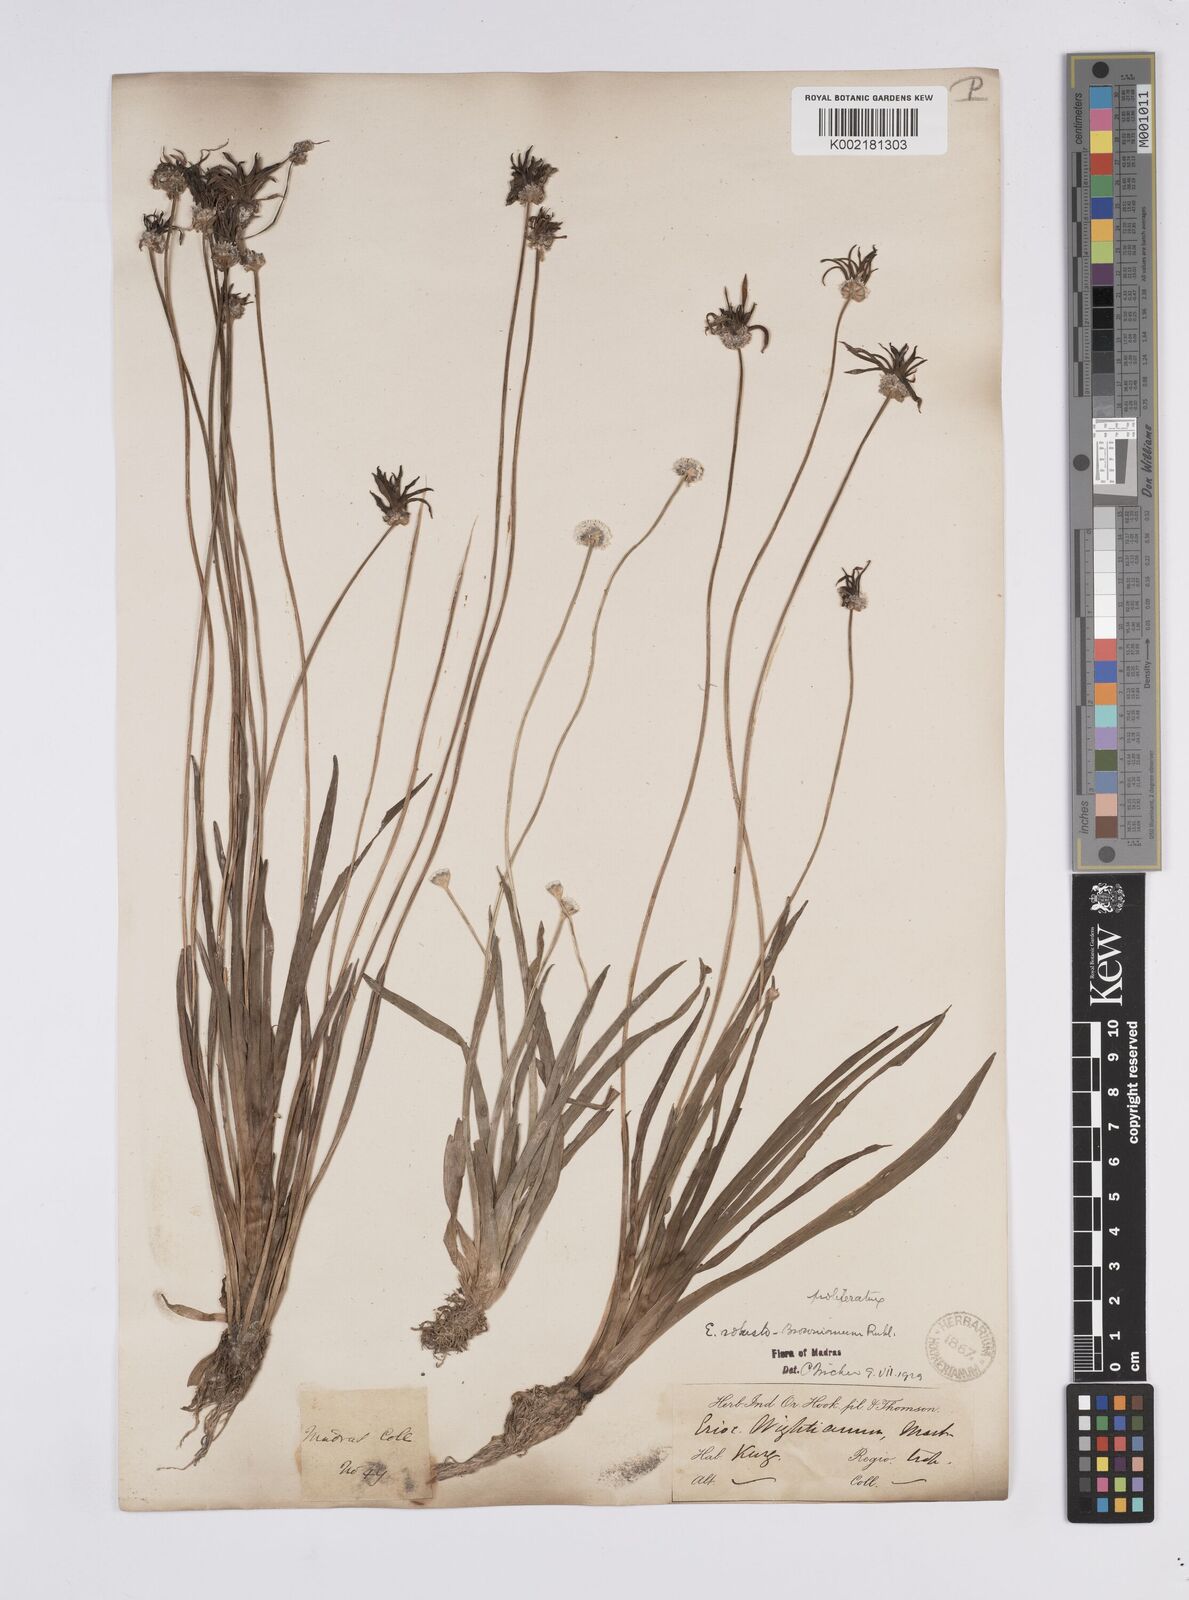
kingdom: Plantae
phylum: Tracheophyta
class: Liliopsida
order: Poales
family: Eriocaulaceae
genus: Eriocaulon
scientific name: Eriocaulon robustobrownianum
